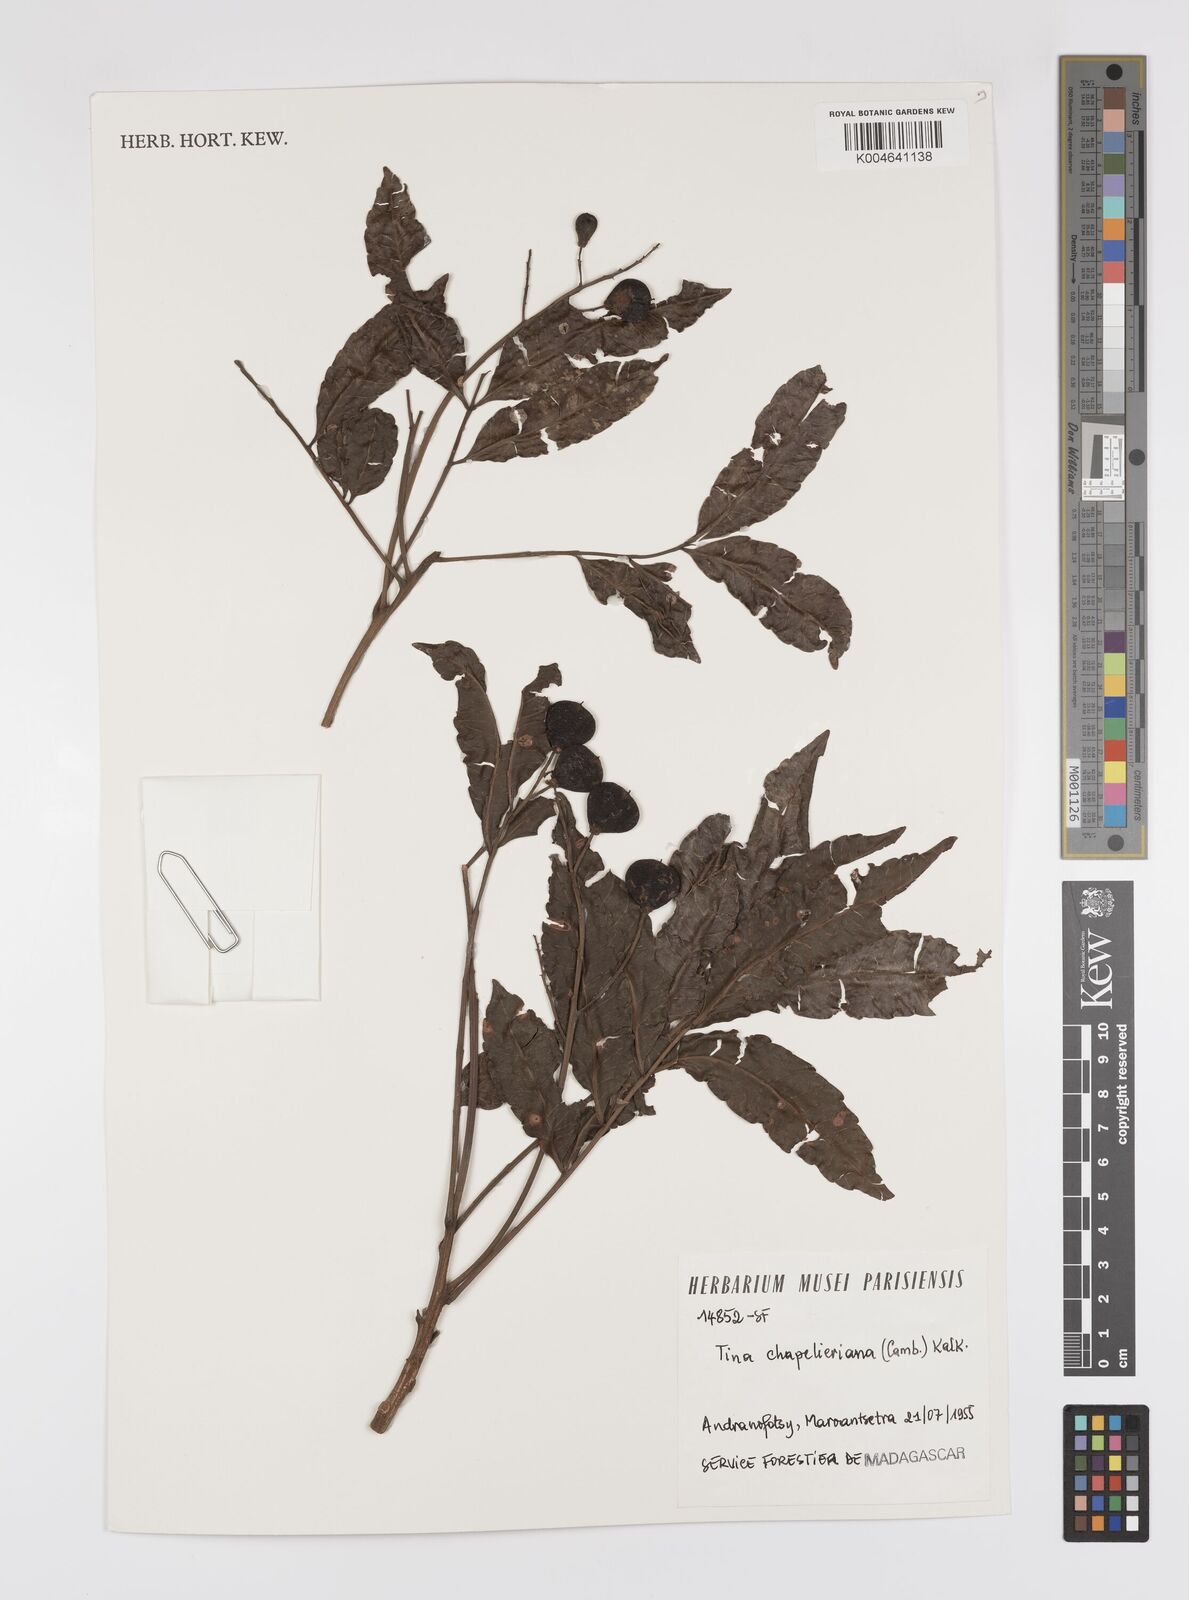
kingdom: Plantae
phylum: Tracheophyta
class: Magnoliopsida
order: Sapindales
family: Sapindaceae
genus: Tina
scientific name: Tina chapelieriana
